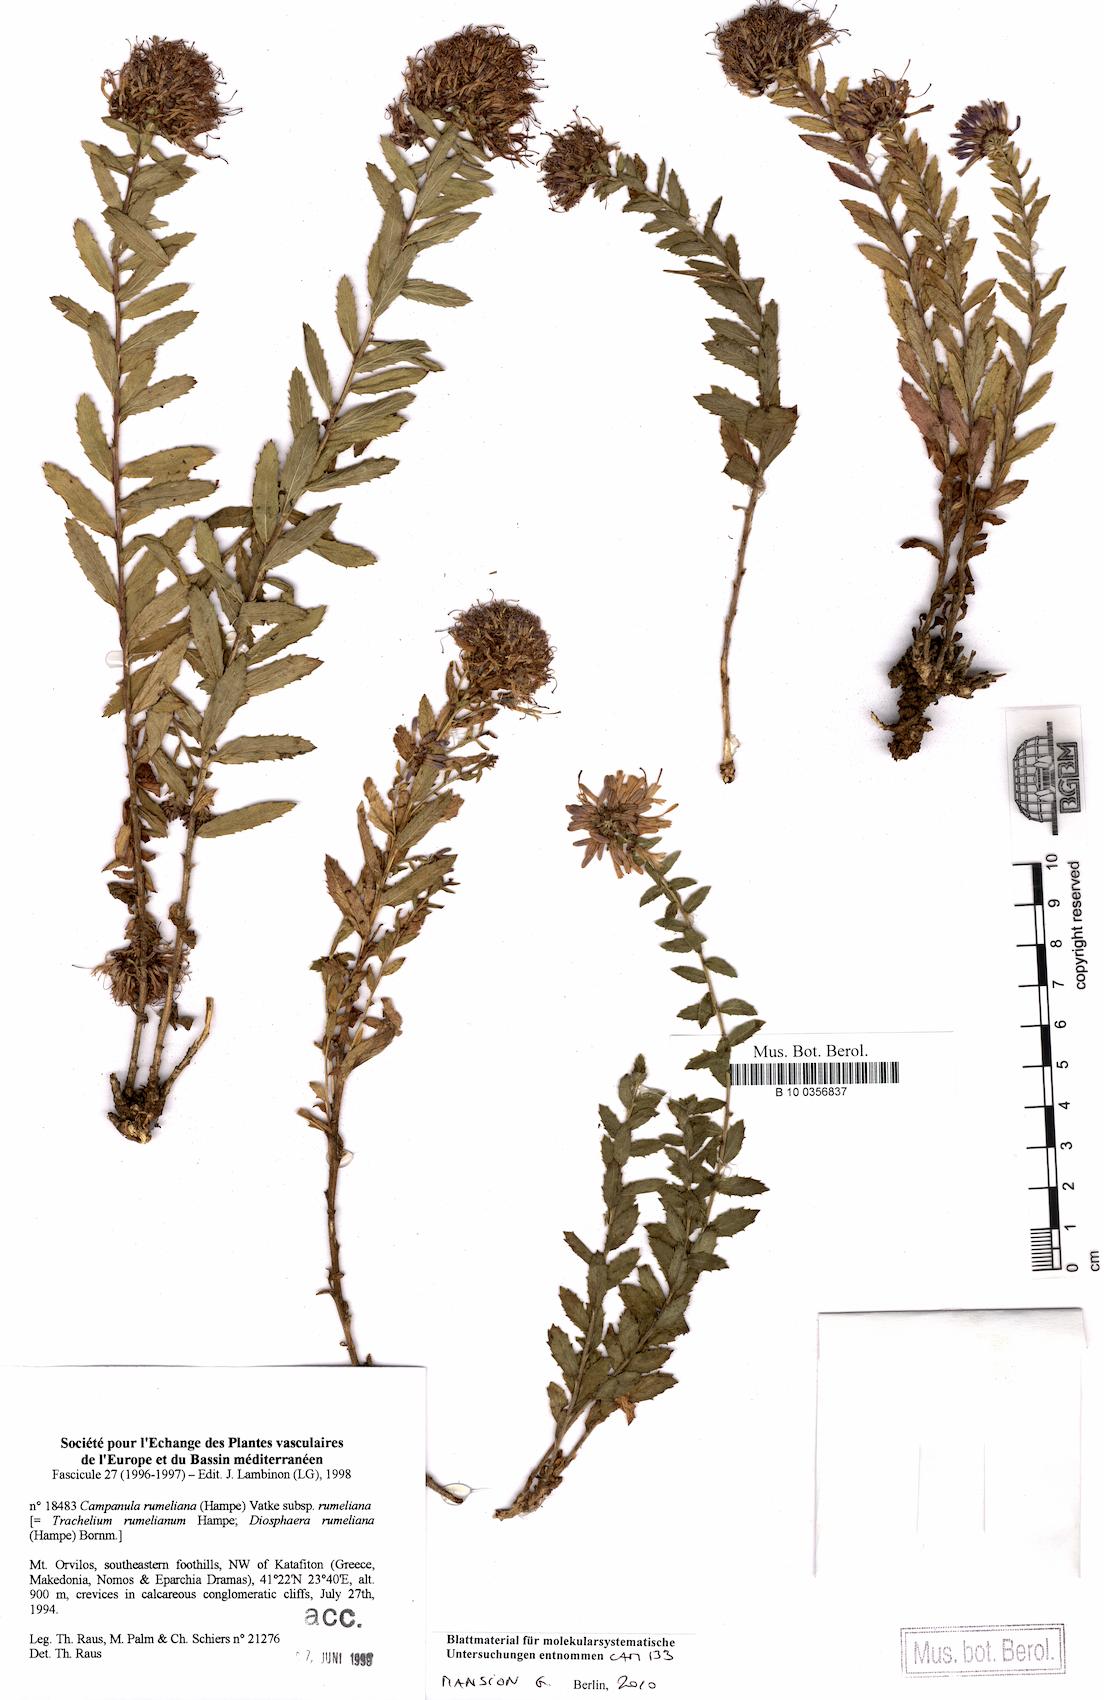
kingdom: Plantae
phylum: Tracheophyta
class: Magnoliopsida
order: Asterales
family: Campanulaceae
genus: Campanula
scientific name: Campanula rumeliana
